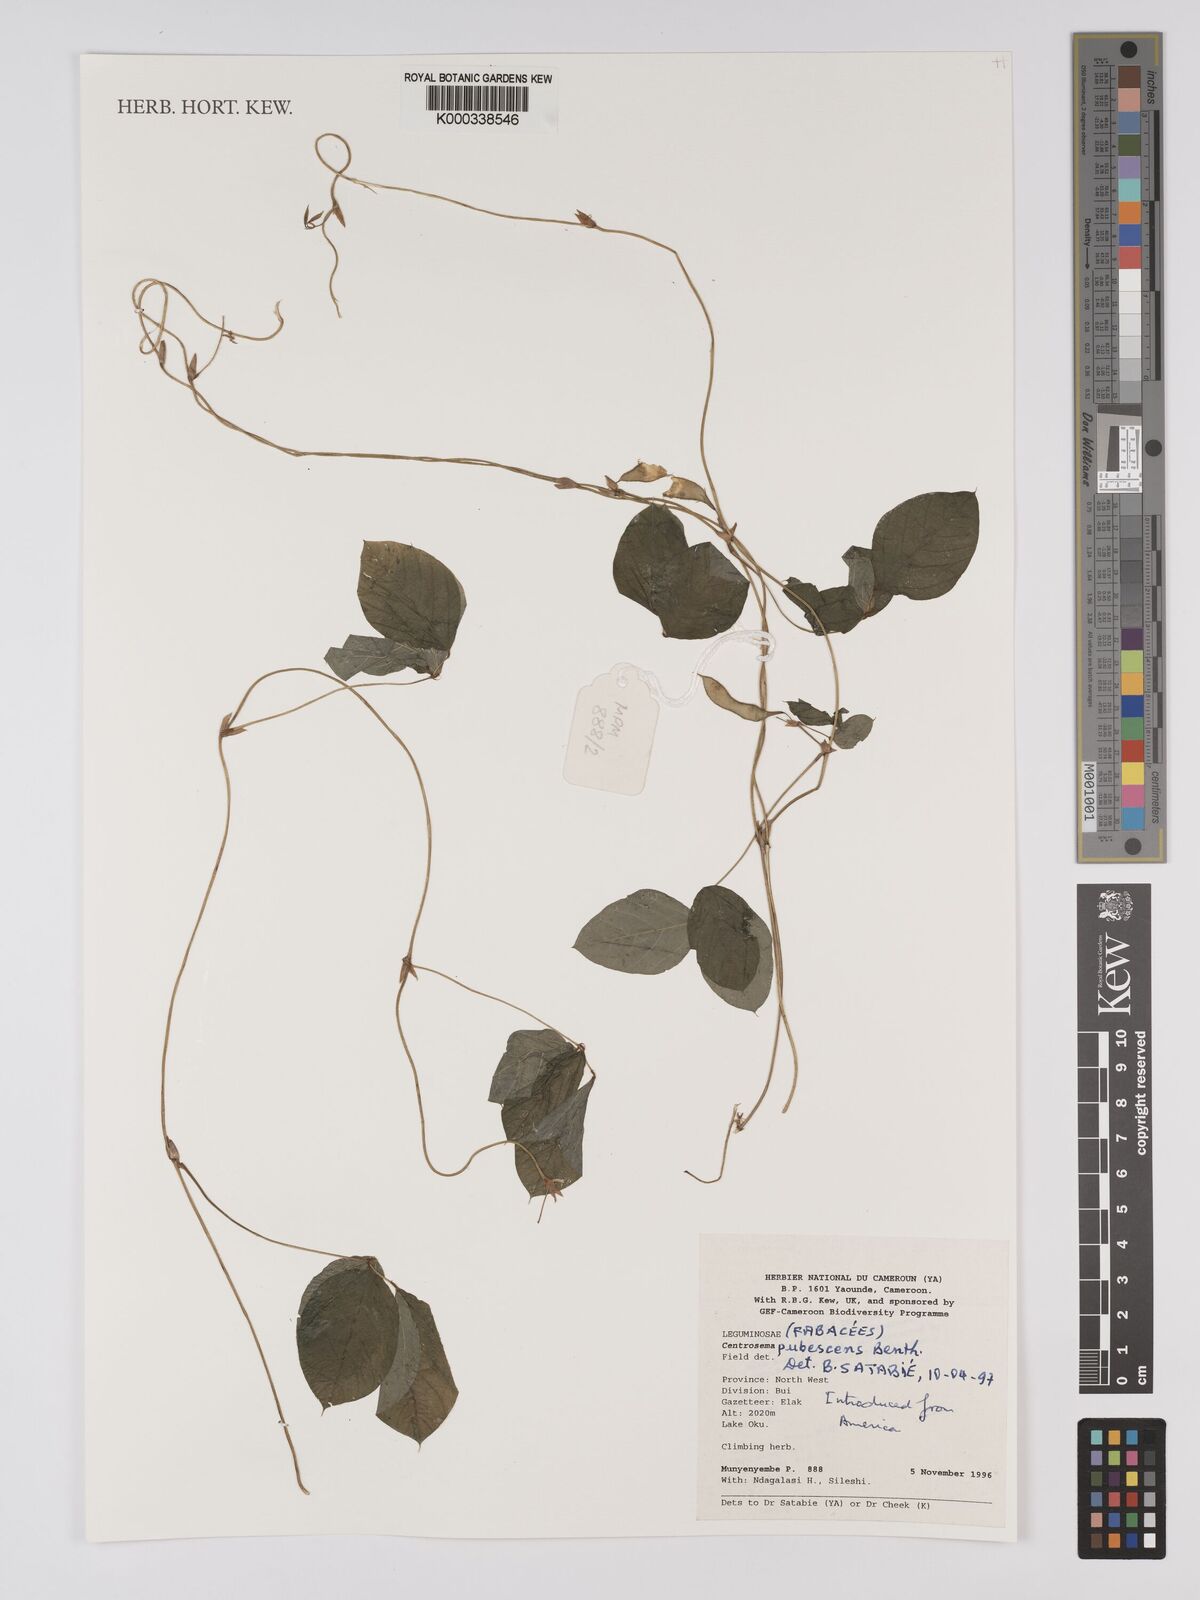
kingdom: Plantae
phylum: Tracheophyta
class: Magnoliopsida
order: Fabales
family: Fabaceae
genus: Centrosema
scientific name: Centrosema pubescens
